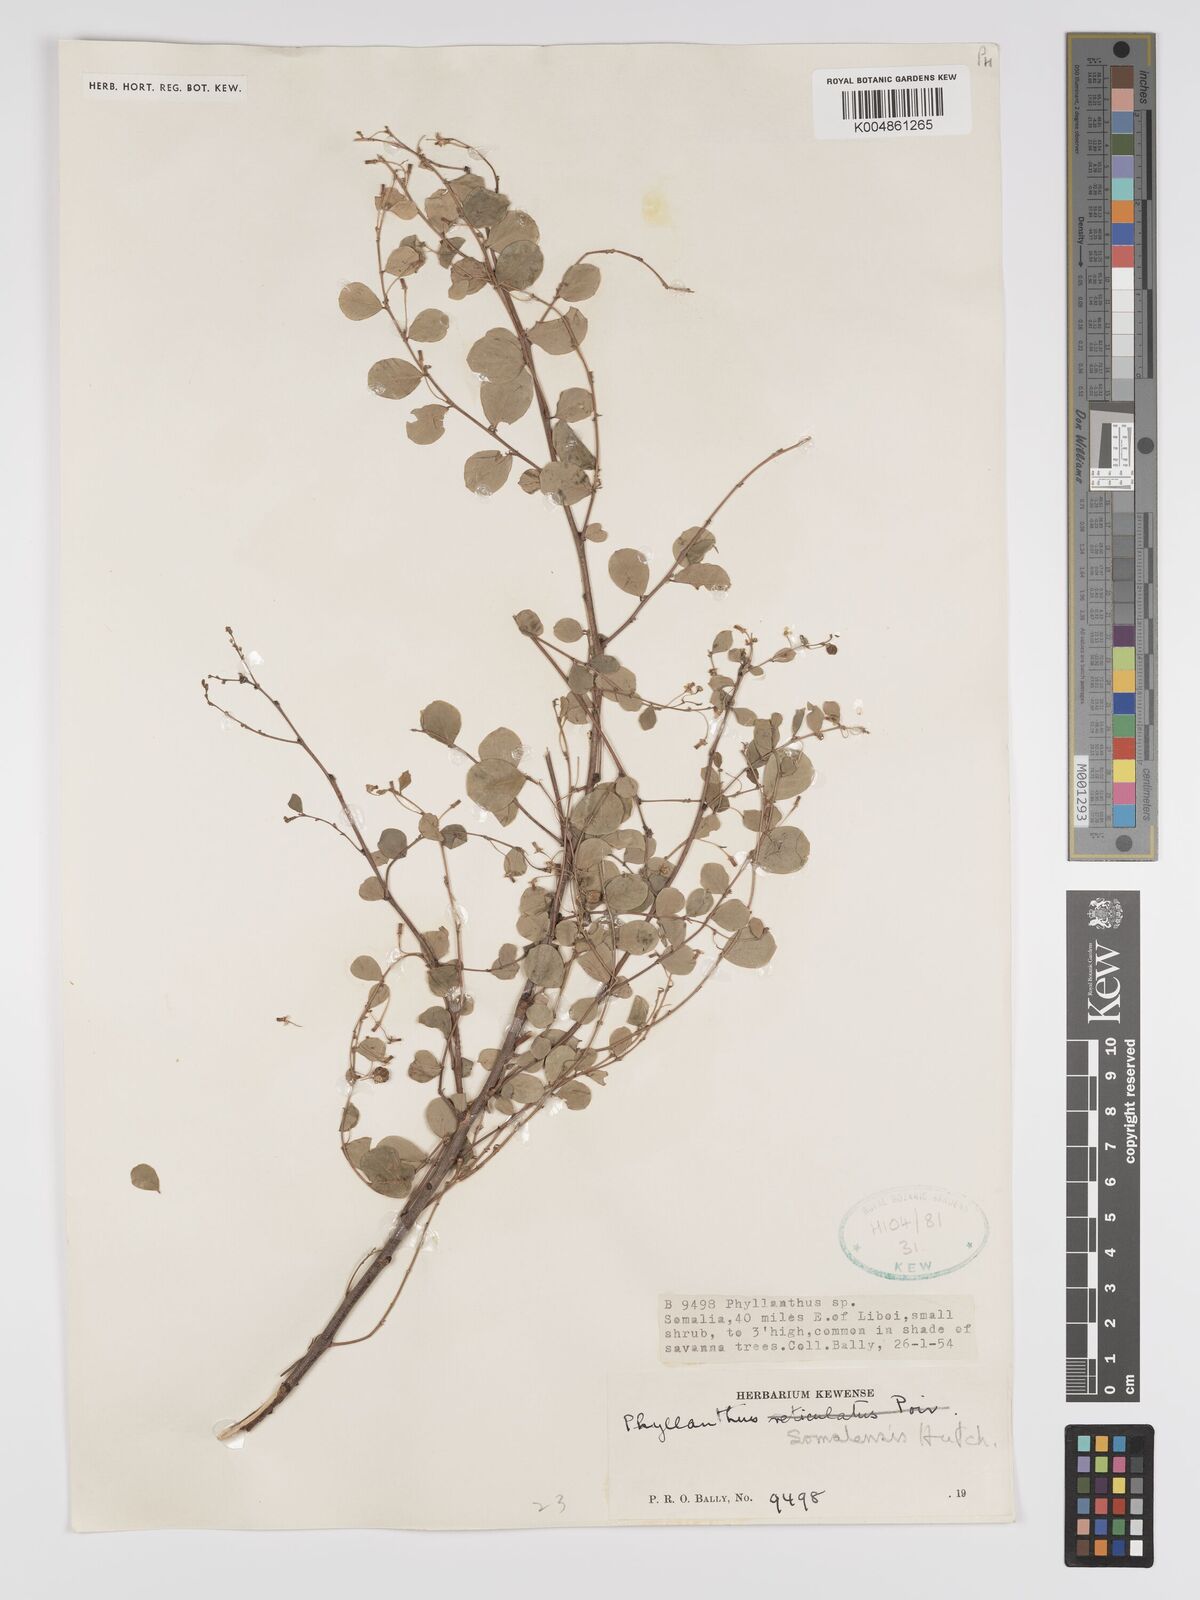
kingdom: Plantae
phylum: Tracheophyta
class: Magnoliopsida
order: Malpighiales
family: Phyllanthaceae
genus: Phyllanthus
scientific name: Phyllanthus somalensis
